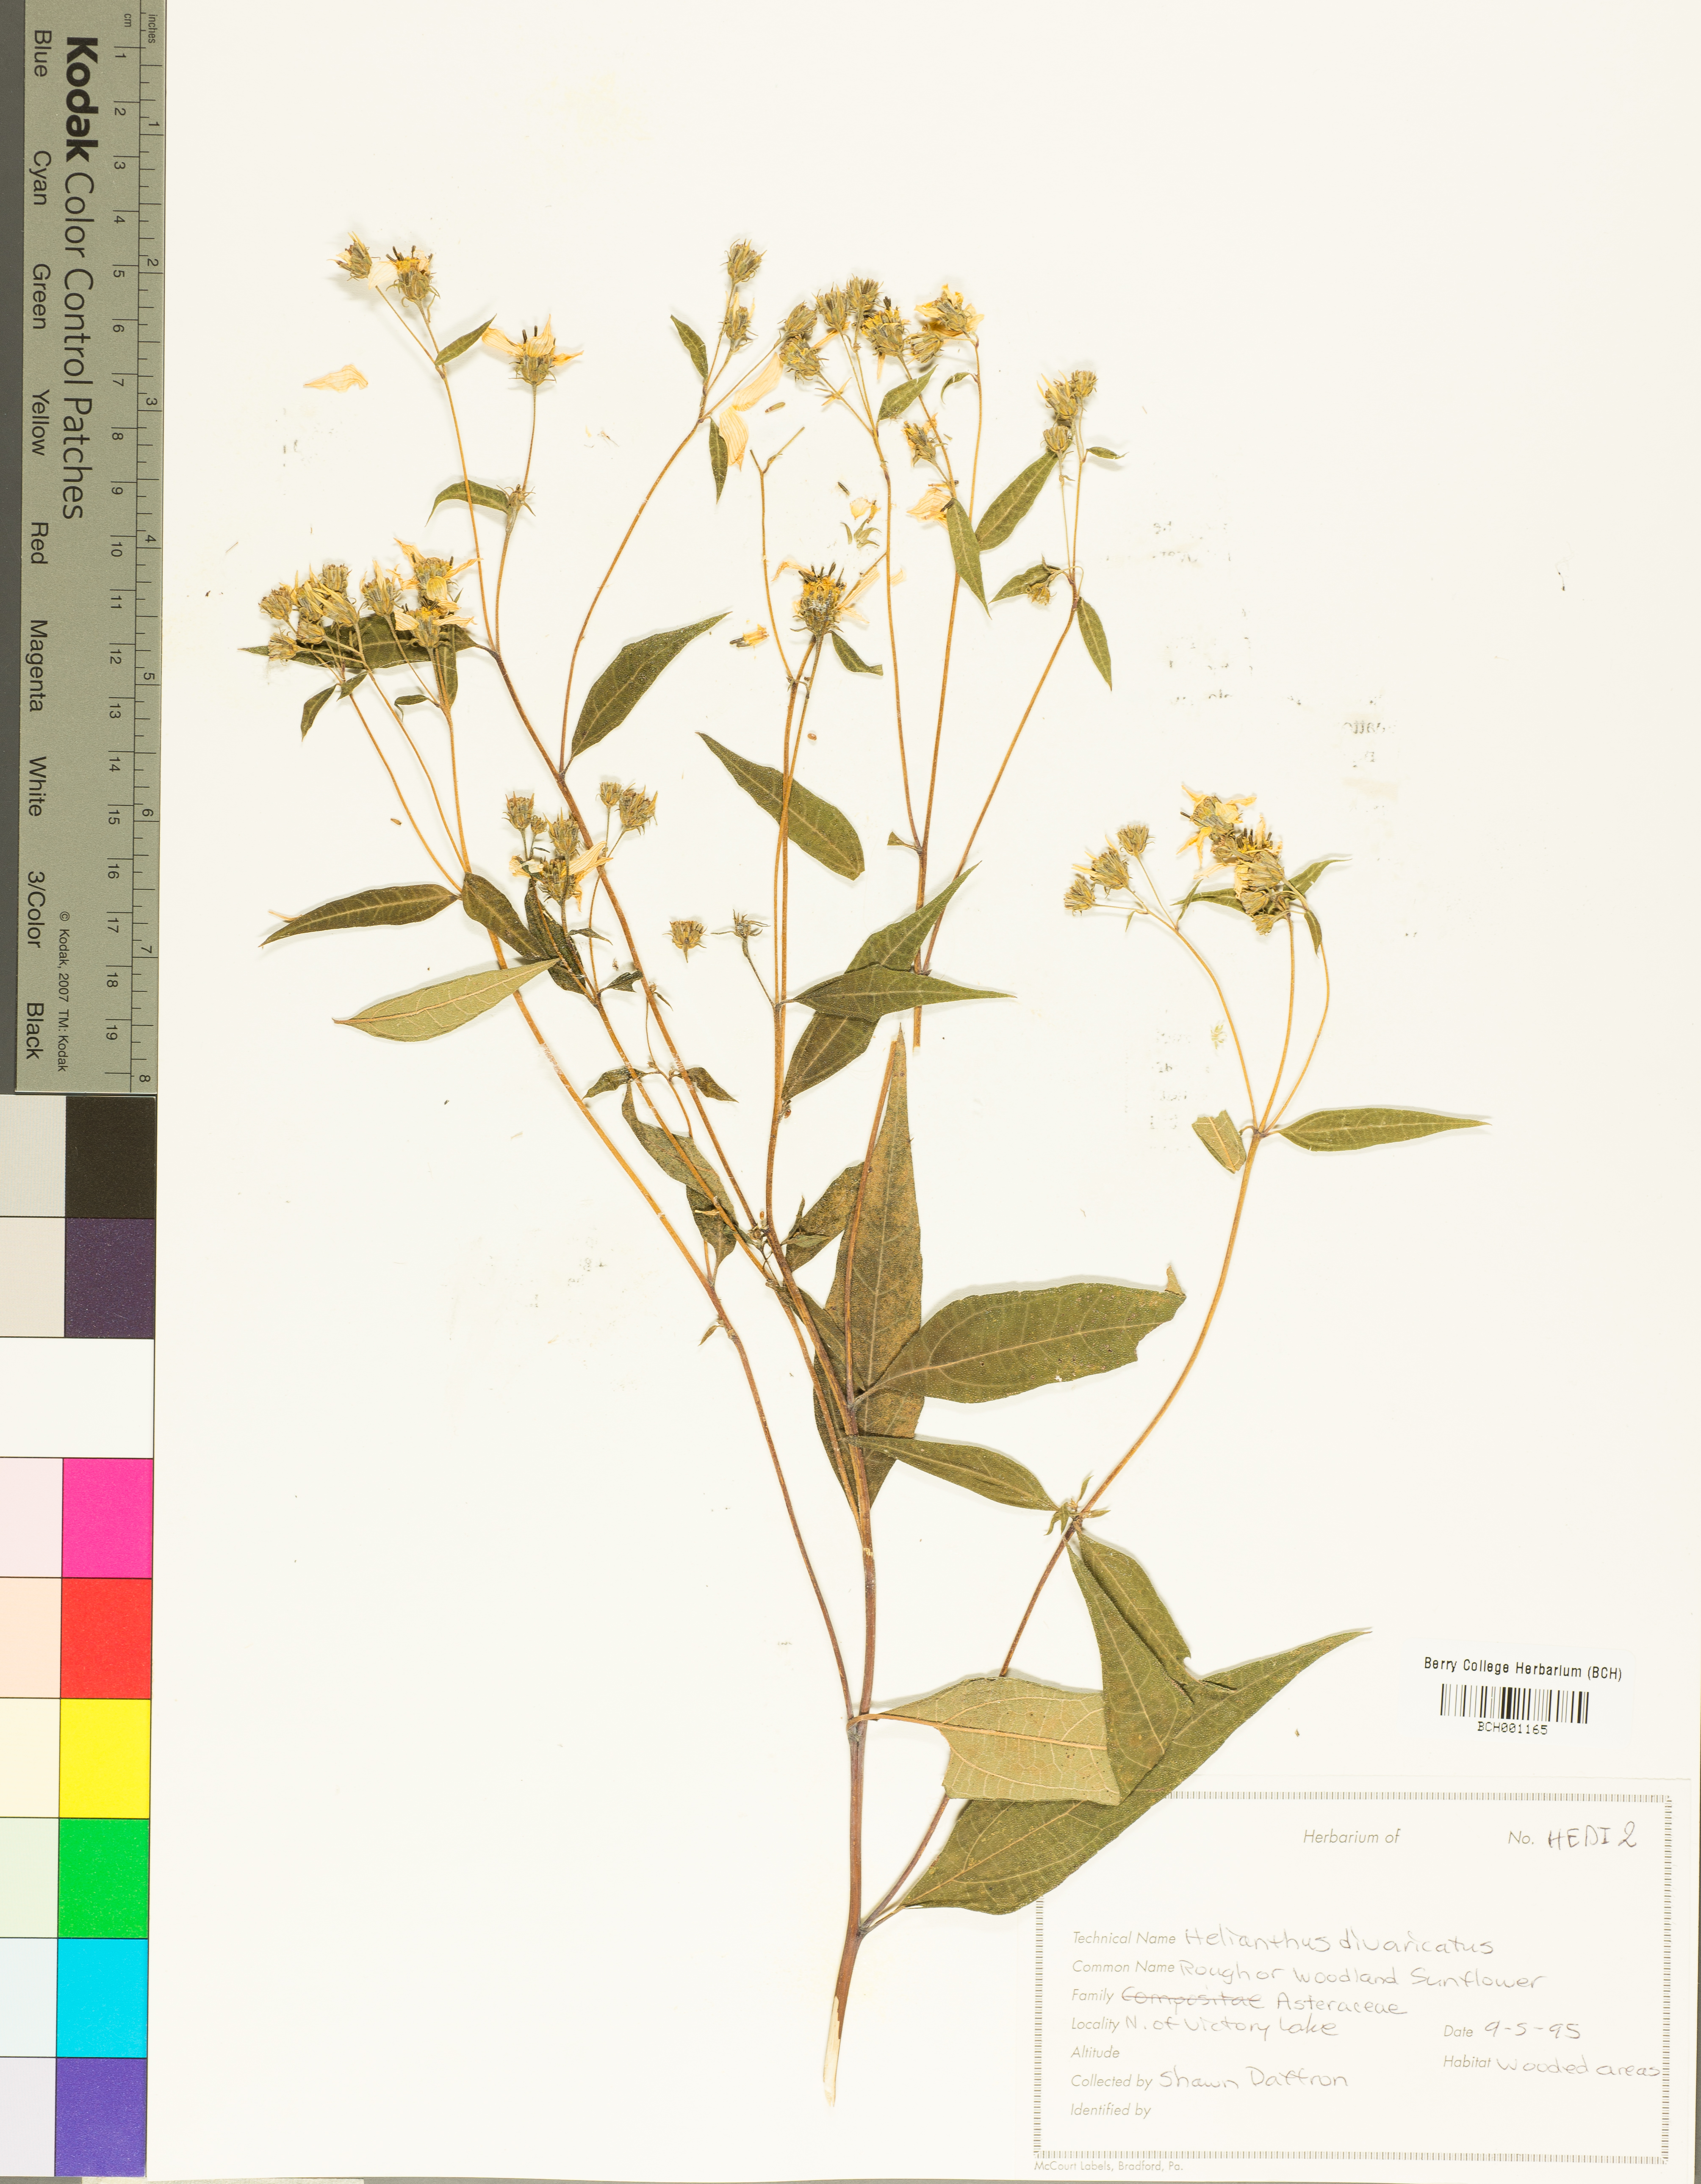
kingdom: Plantae
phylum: Tracheophyta
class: Magnoliopsida
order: Asterales
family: Asteraceae
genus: Helianthus
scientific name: Helianthus divaricatus
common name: Divergent sunflower
